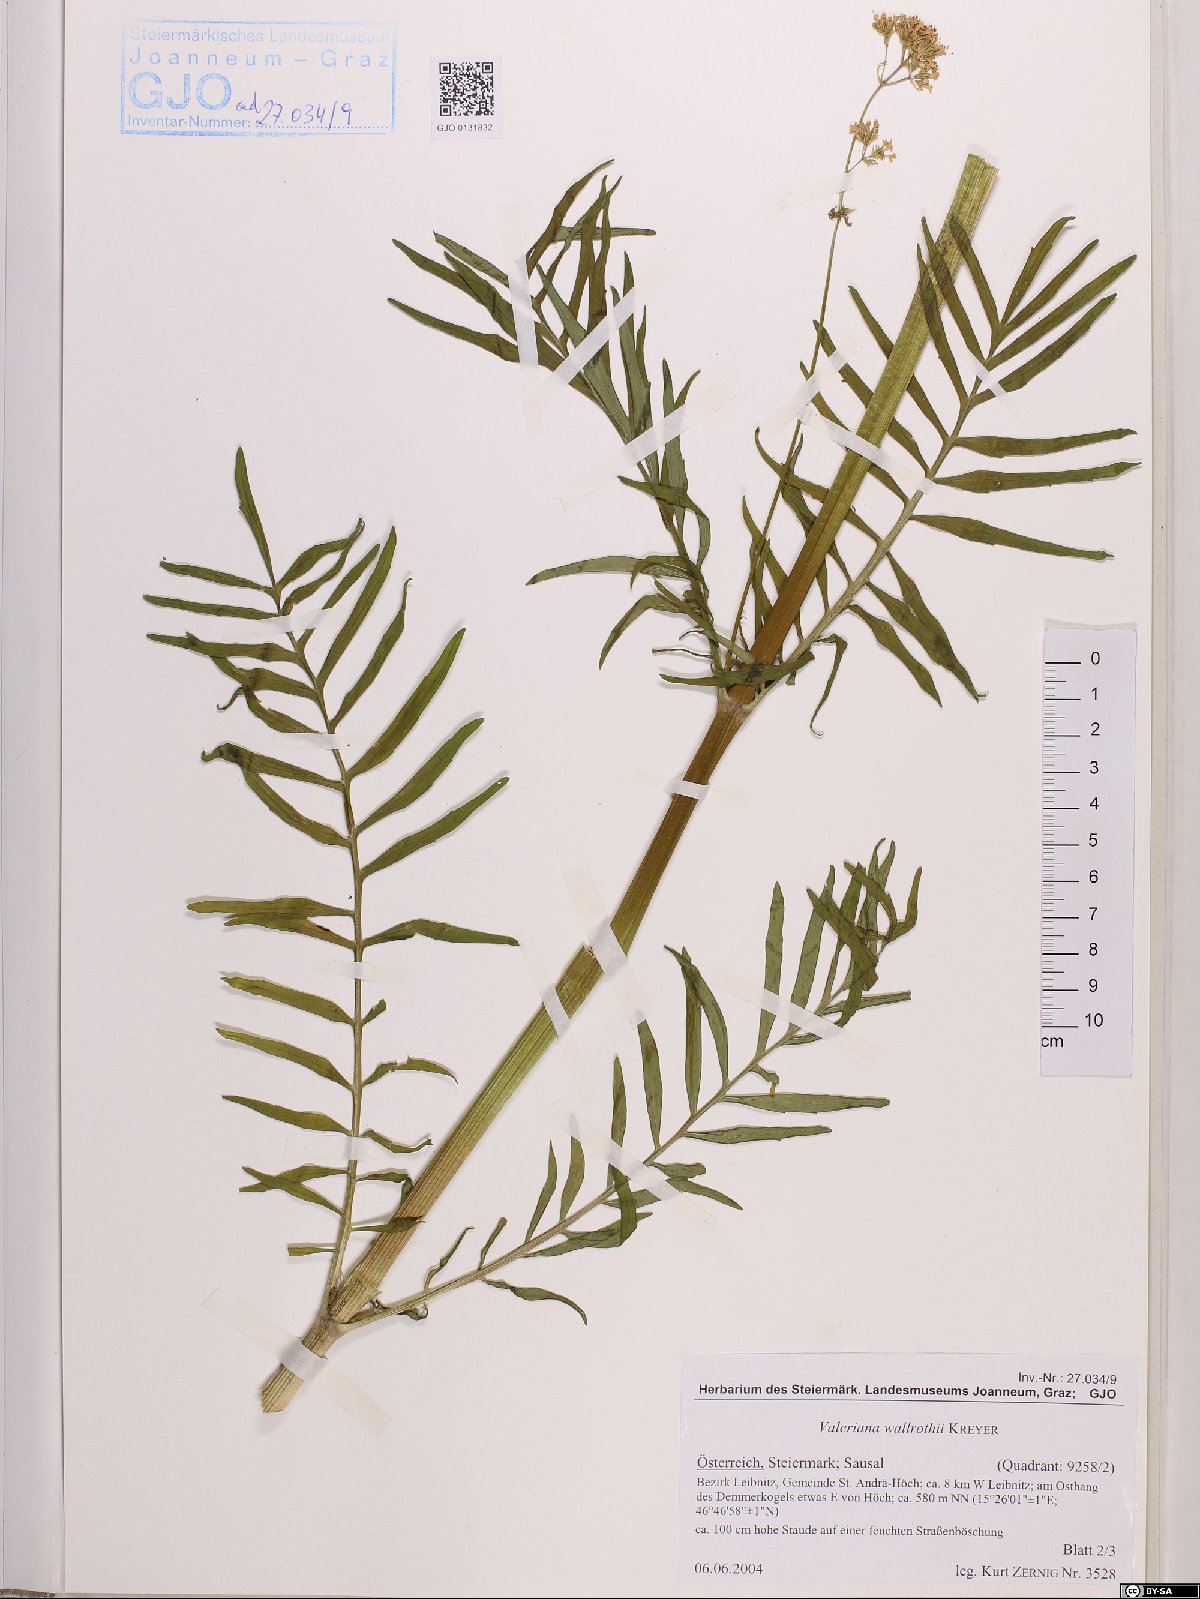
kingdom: Plantae
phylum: Tracheophyta
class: Magnoliopsida
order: Dipsacales
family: Caprifoliaceae
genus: Valeriana
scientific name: Valeriana pratensis
